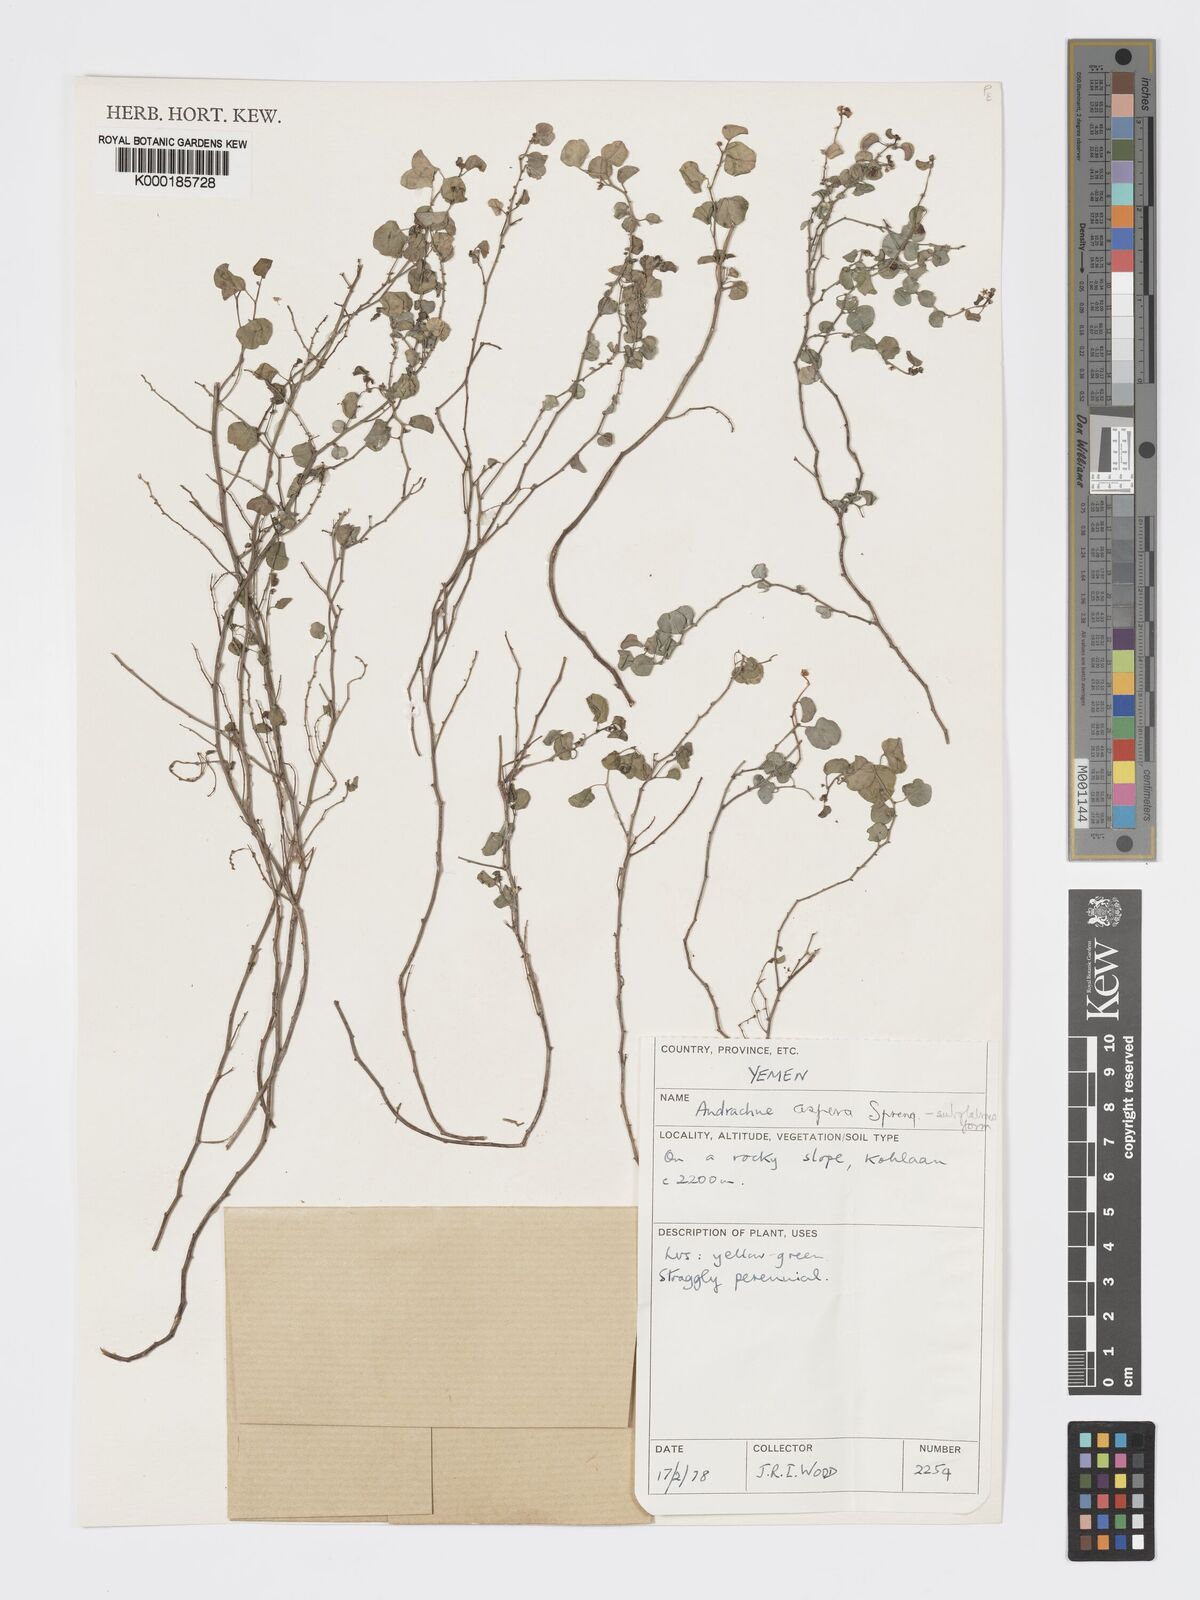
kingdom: Plantae
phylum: Tracheophyta
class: Magnoliopsida
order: Malpighiales
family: Phyllanthaceae
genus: Andrachne
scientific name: Andrachne aspera
